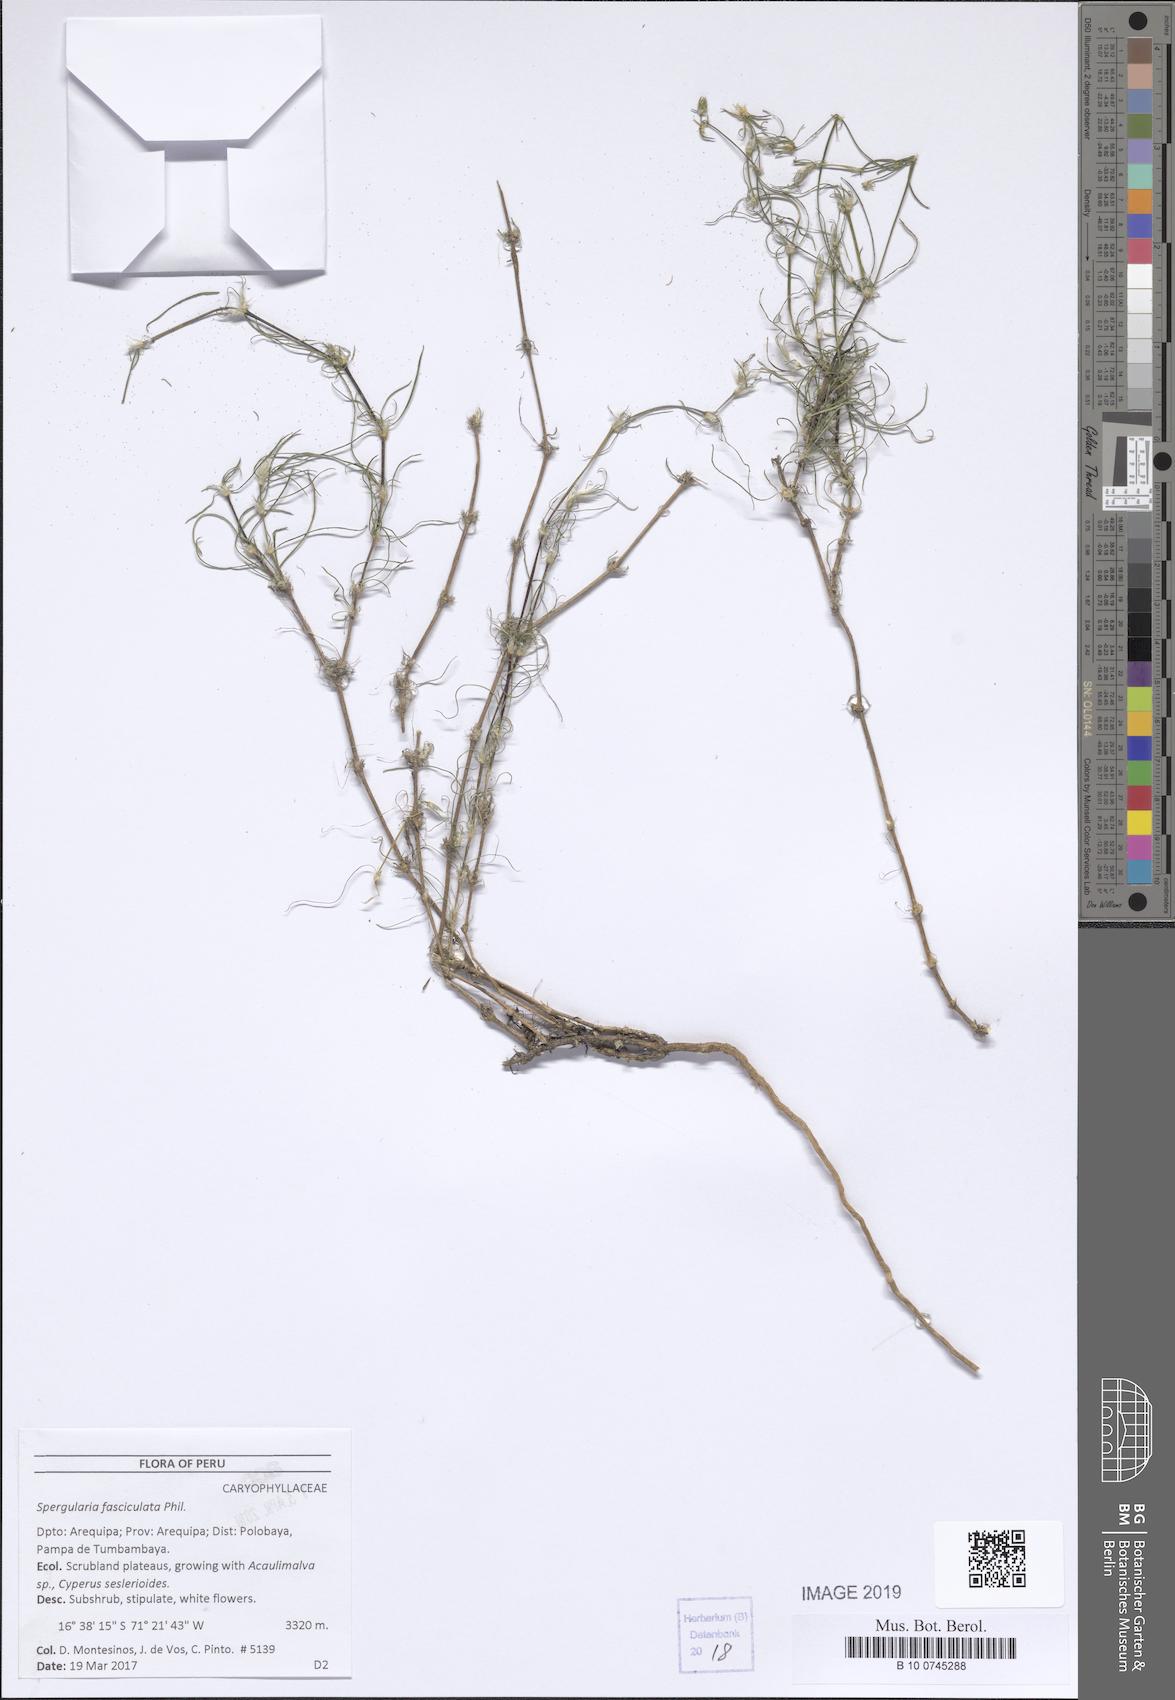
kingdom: Plantae
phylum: Tracheophyta
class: Magnoliopsida
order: Caryophyllales
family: Caryophyllaceae
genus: Spergularia
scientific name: Spergularia fasciculata
